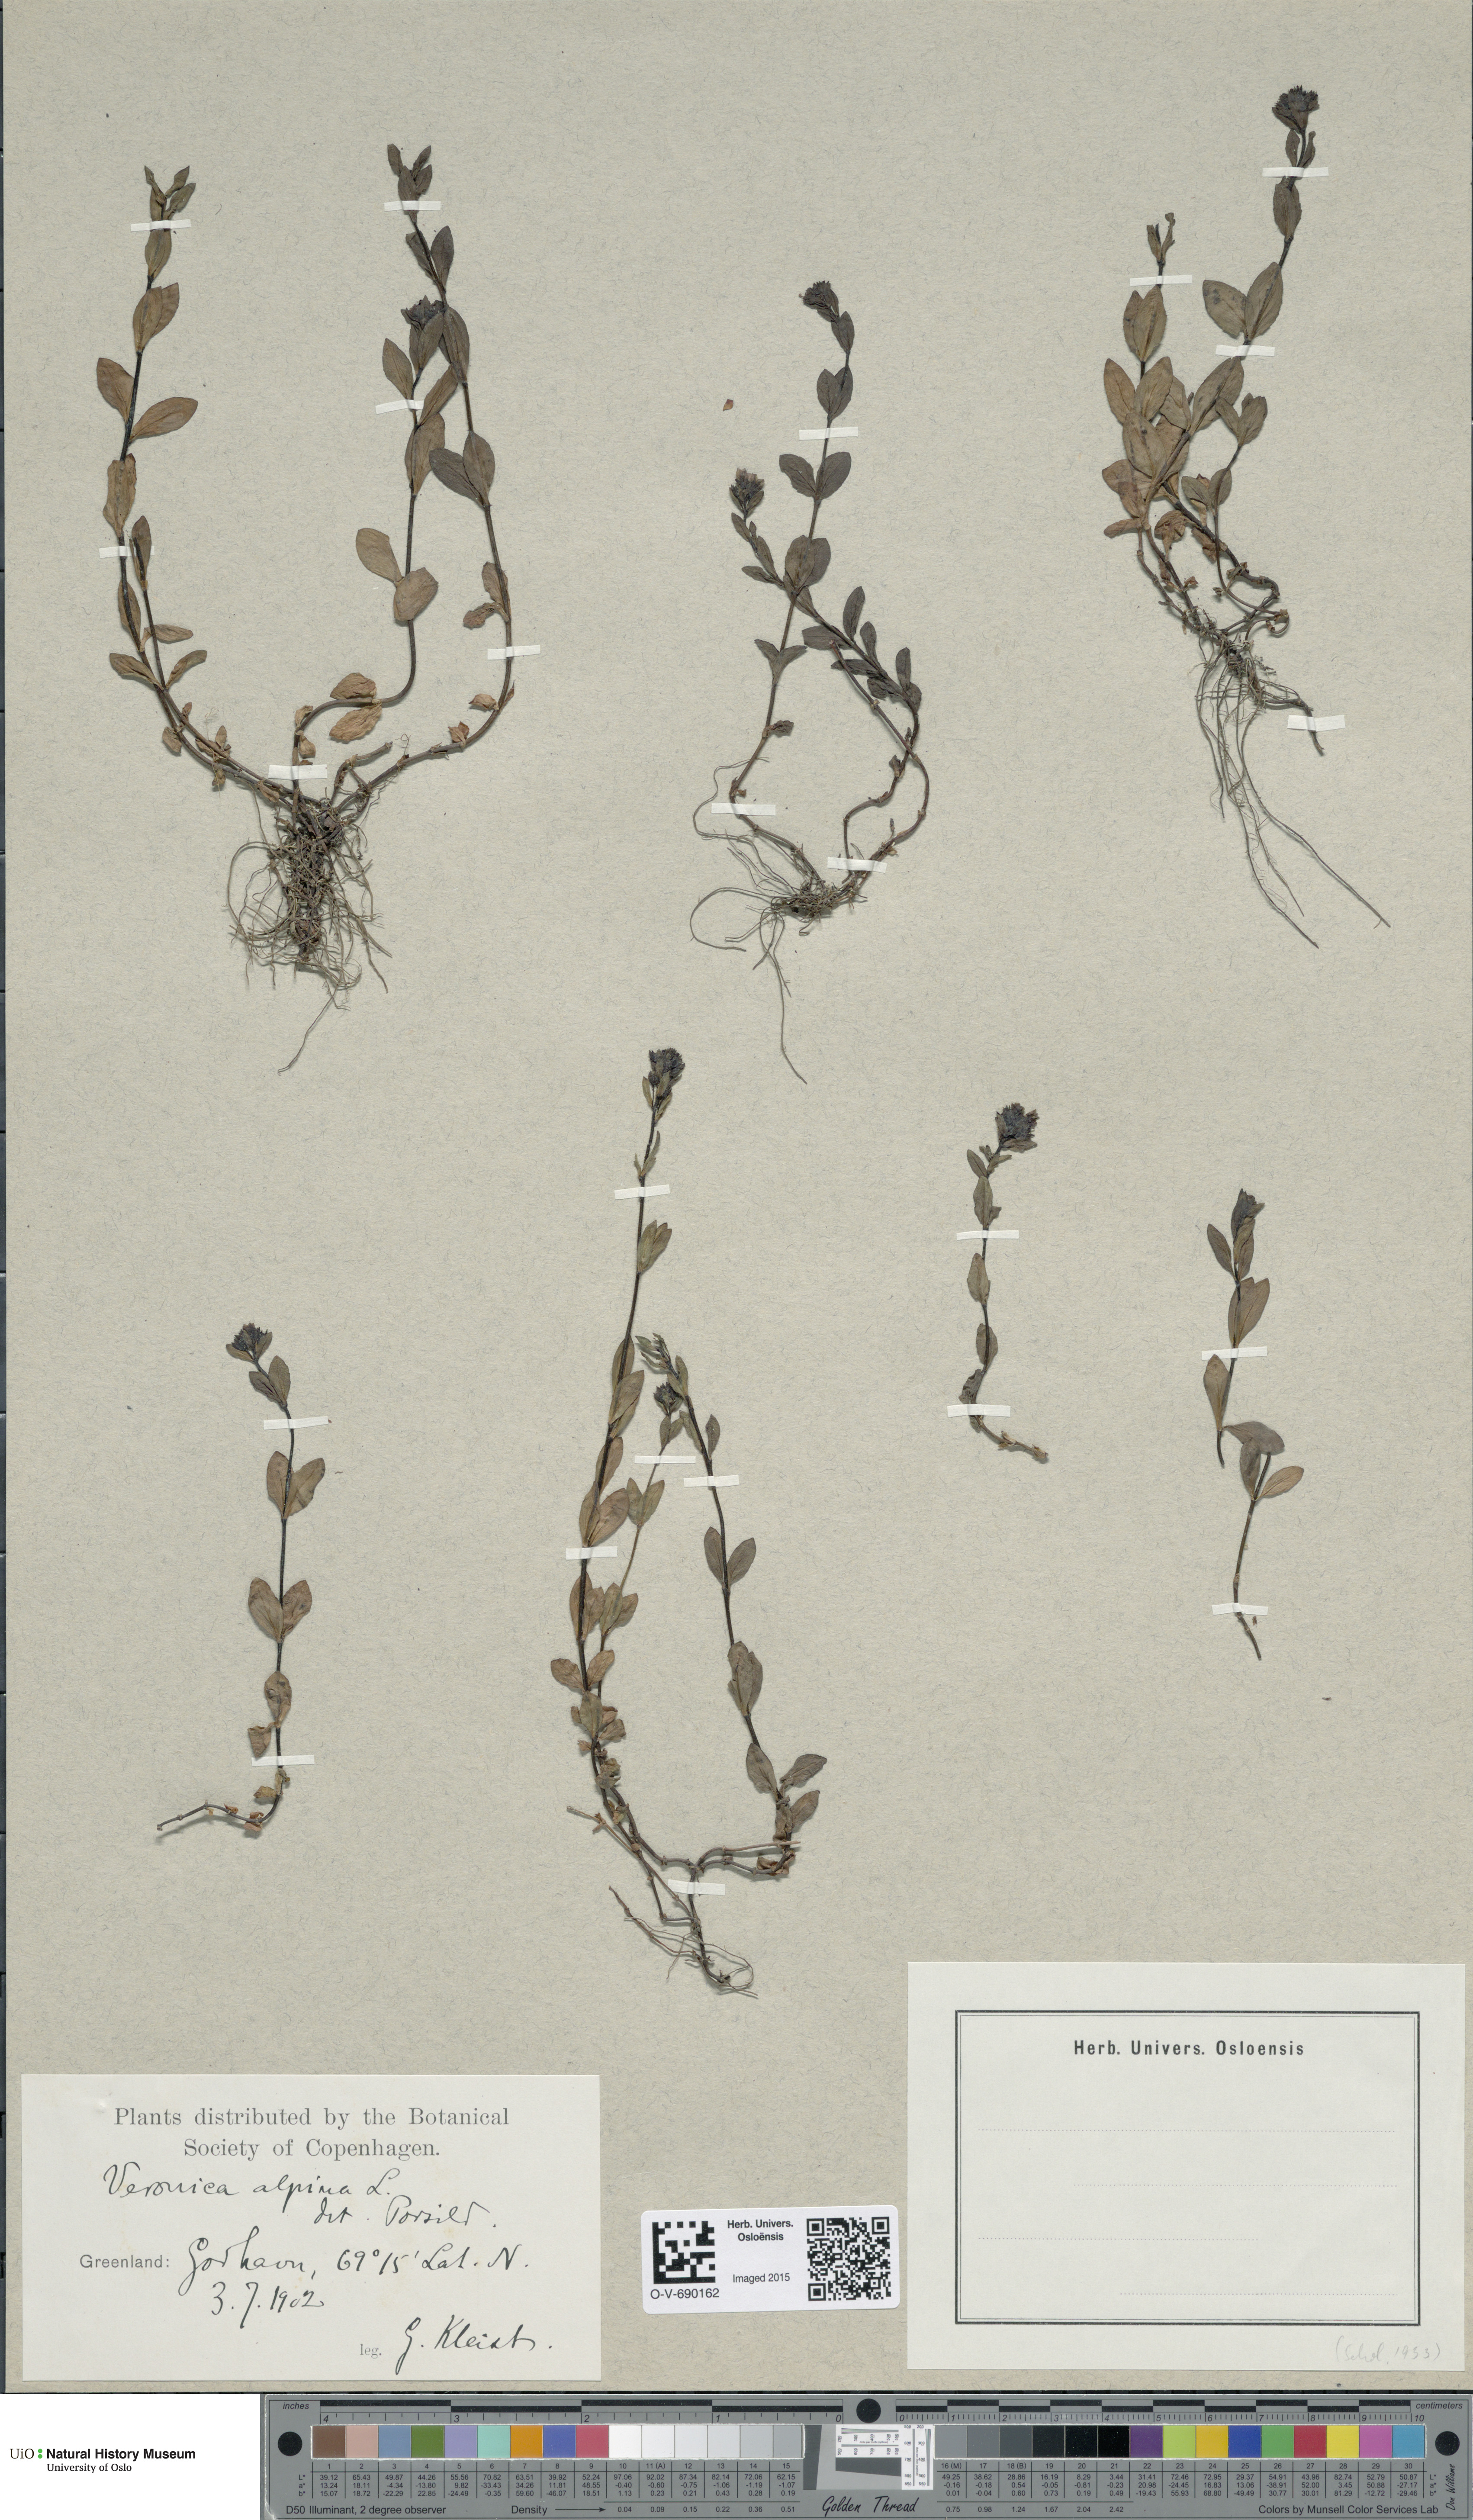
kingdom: Plantae
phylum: Tracheophyta
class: Magnoliopsida
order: Lamiales
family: Plantaginaceae
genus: Veronica
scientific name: Veronica alpina
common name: Alpine speedwell
